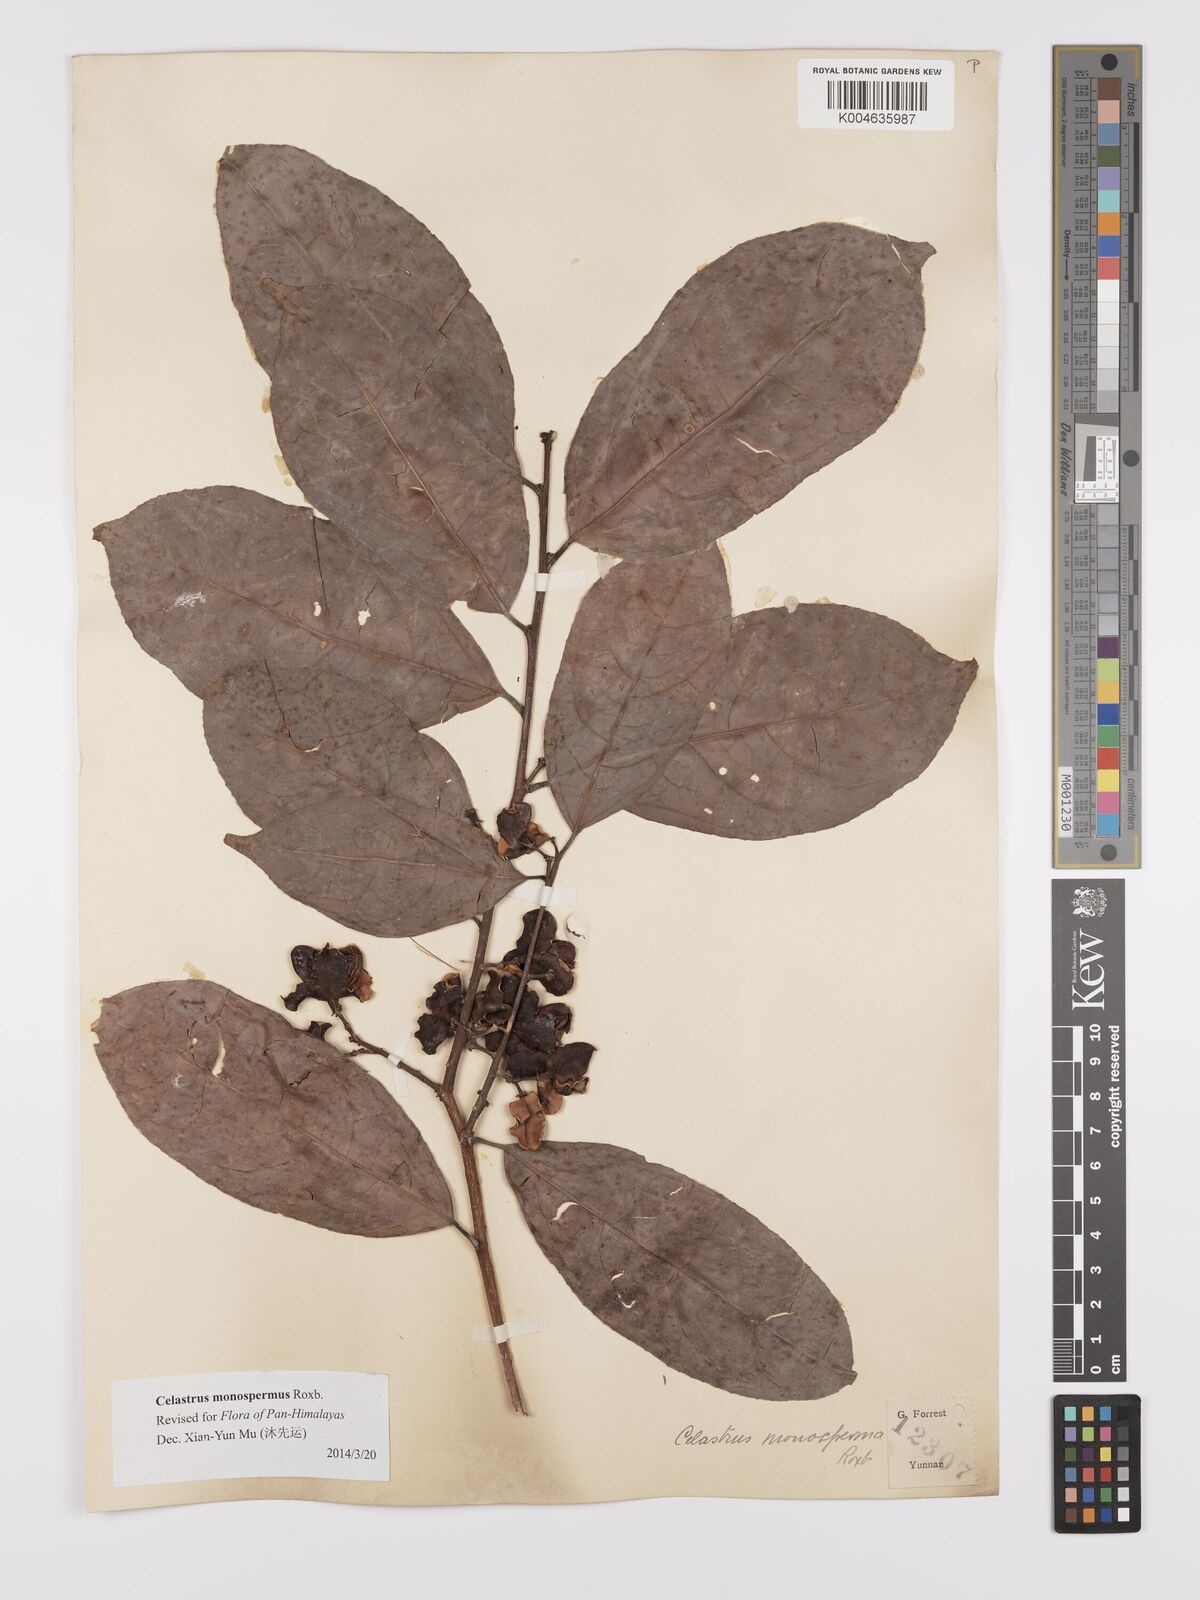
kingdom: Plantae
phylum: Tracheophyta
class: Magnoliopsida
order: Celastrales
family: Celastraceae
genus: Celastrus
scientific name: Celastrus monospermus
